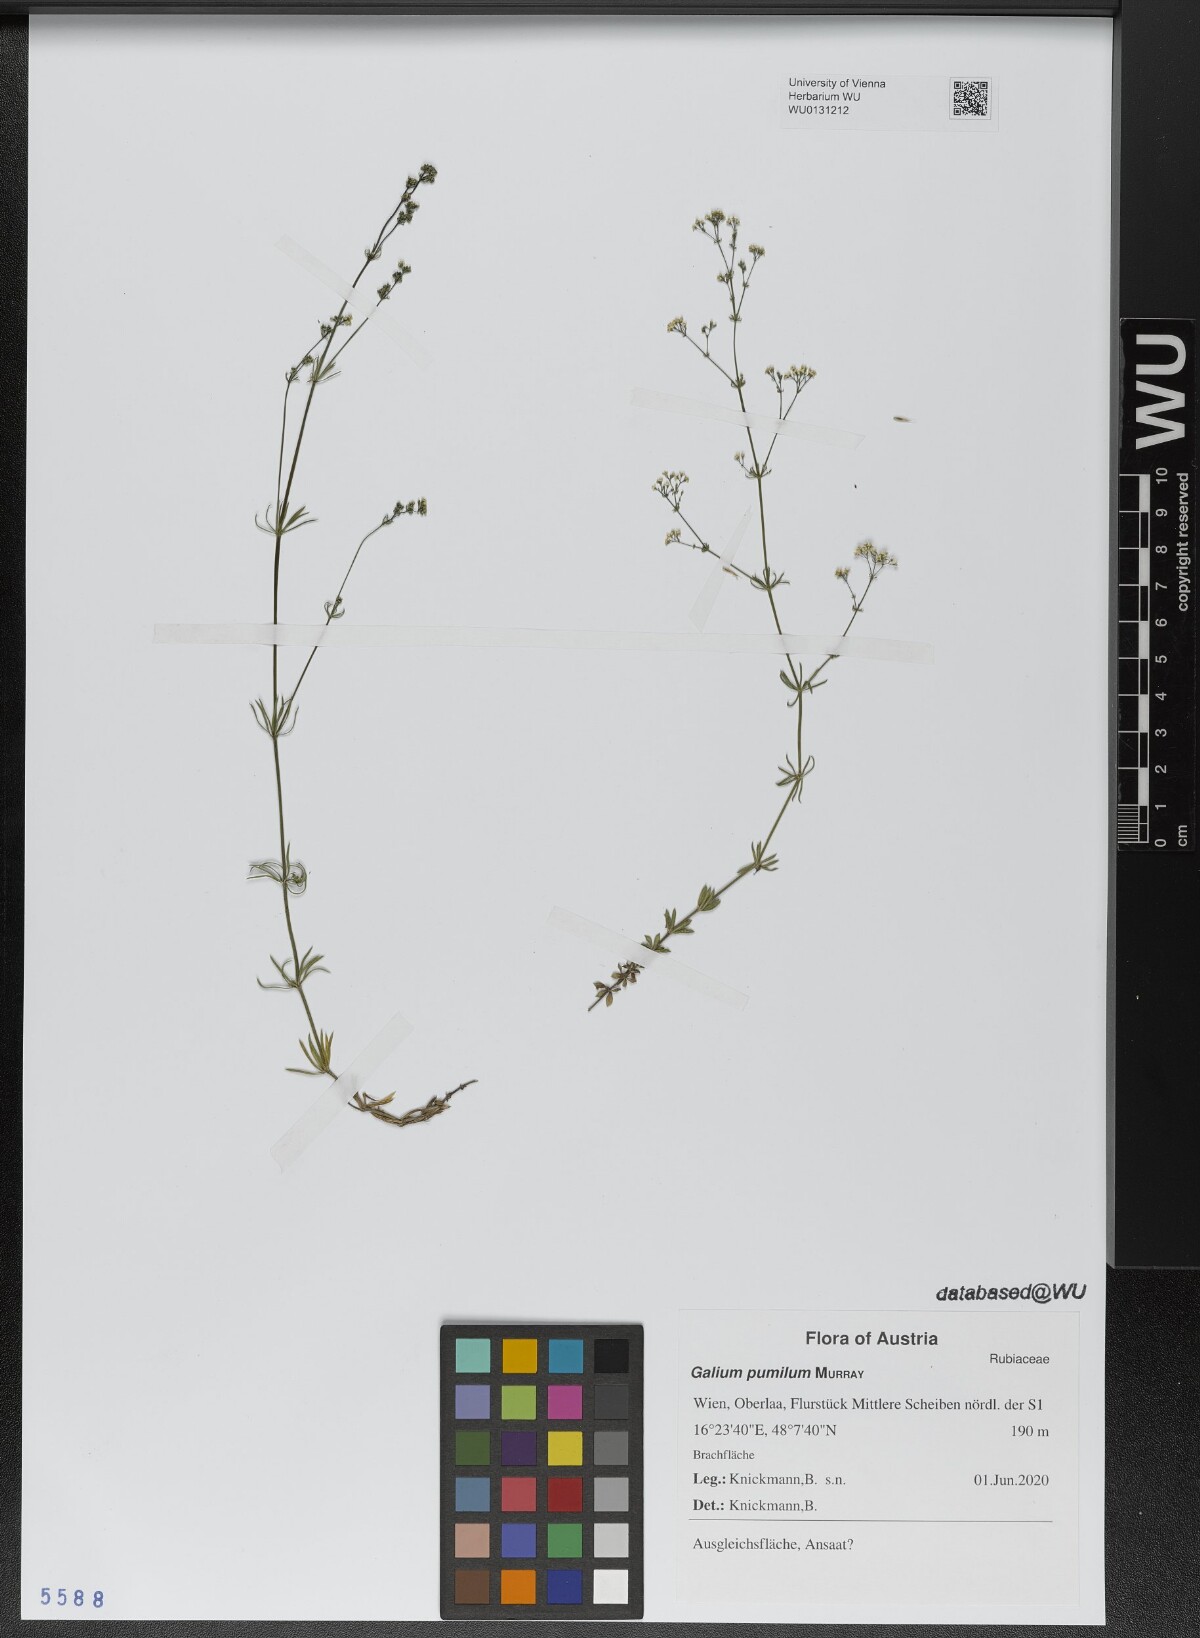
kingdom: Plantae
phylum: Tracheophyta
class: Magnoliopsida
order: Gentianales
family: Rubiaceae
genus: Galium
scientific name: Galium pumilum
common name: Slender bedstraw
